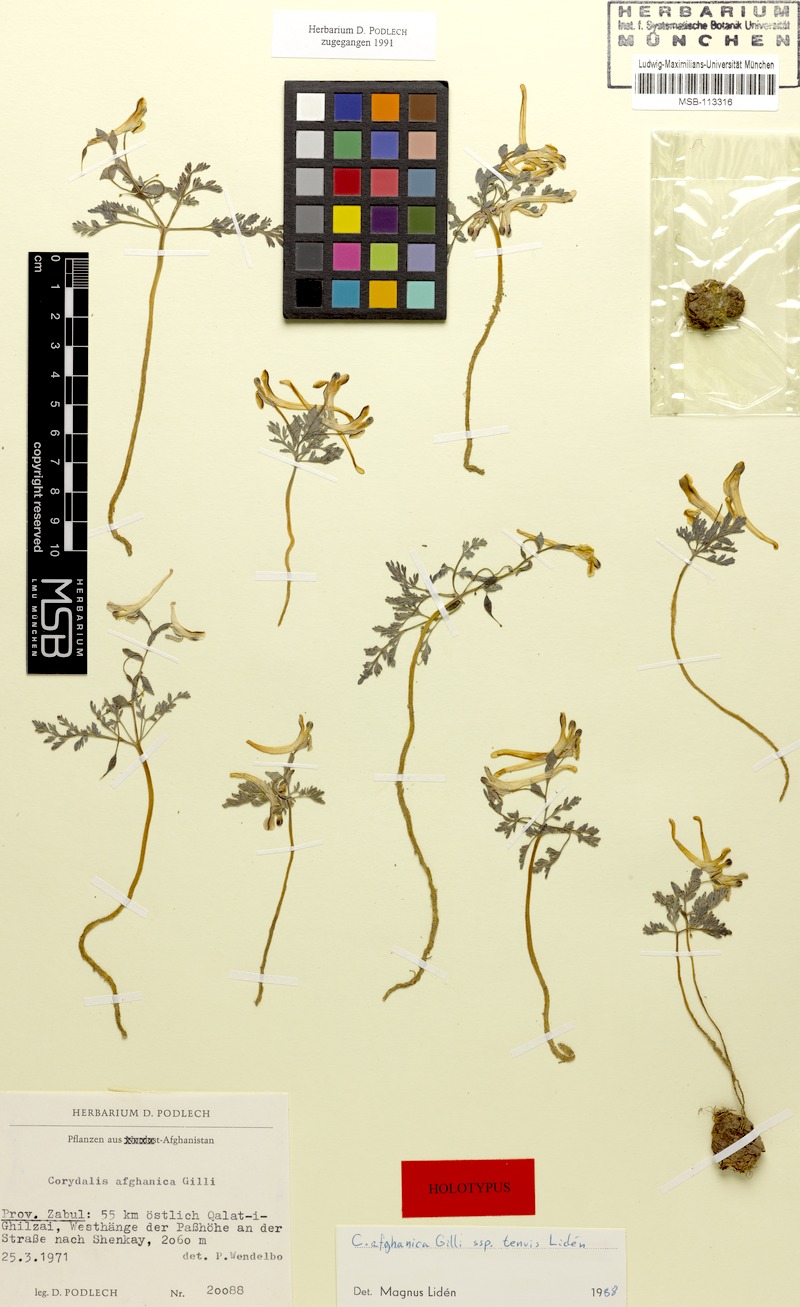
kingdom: Plantae
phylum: Tracheophyta
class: Magnoliopsida
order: Ranunculales
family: Papaveraceae
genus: Corydalis
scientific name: Corydalis afghanica
